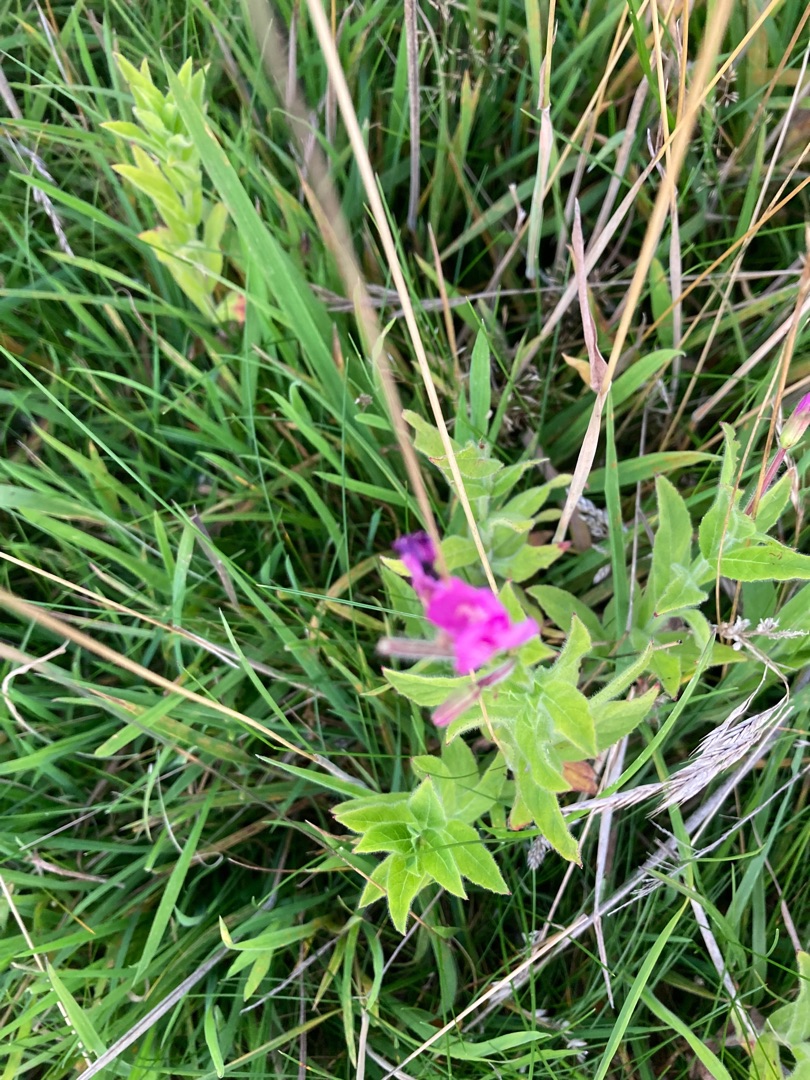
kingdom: Plantae
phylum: Tracheophyta
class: Magnoliopsida
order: Myrtales
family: Onagraceae
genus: Epilobium
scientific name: Epilobium hirsutum
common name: Lådden dueurt
